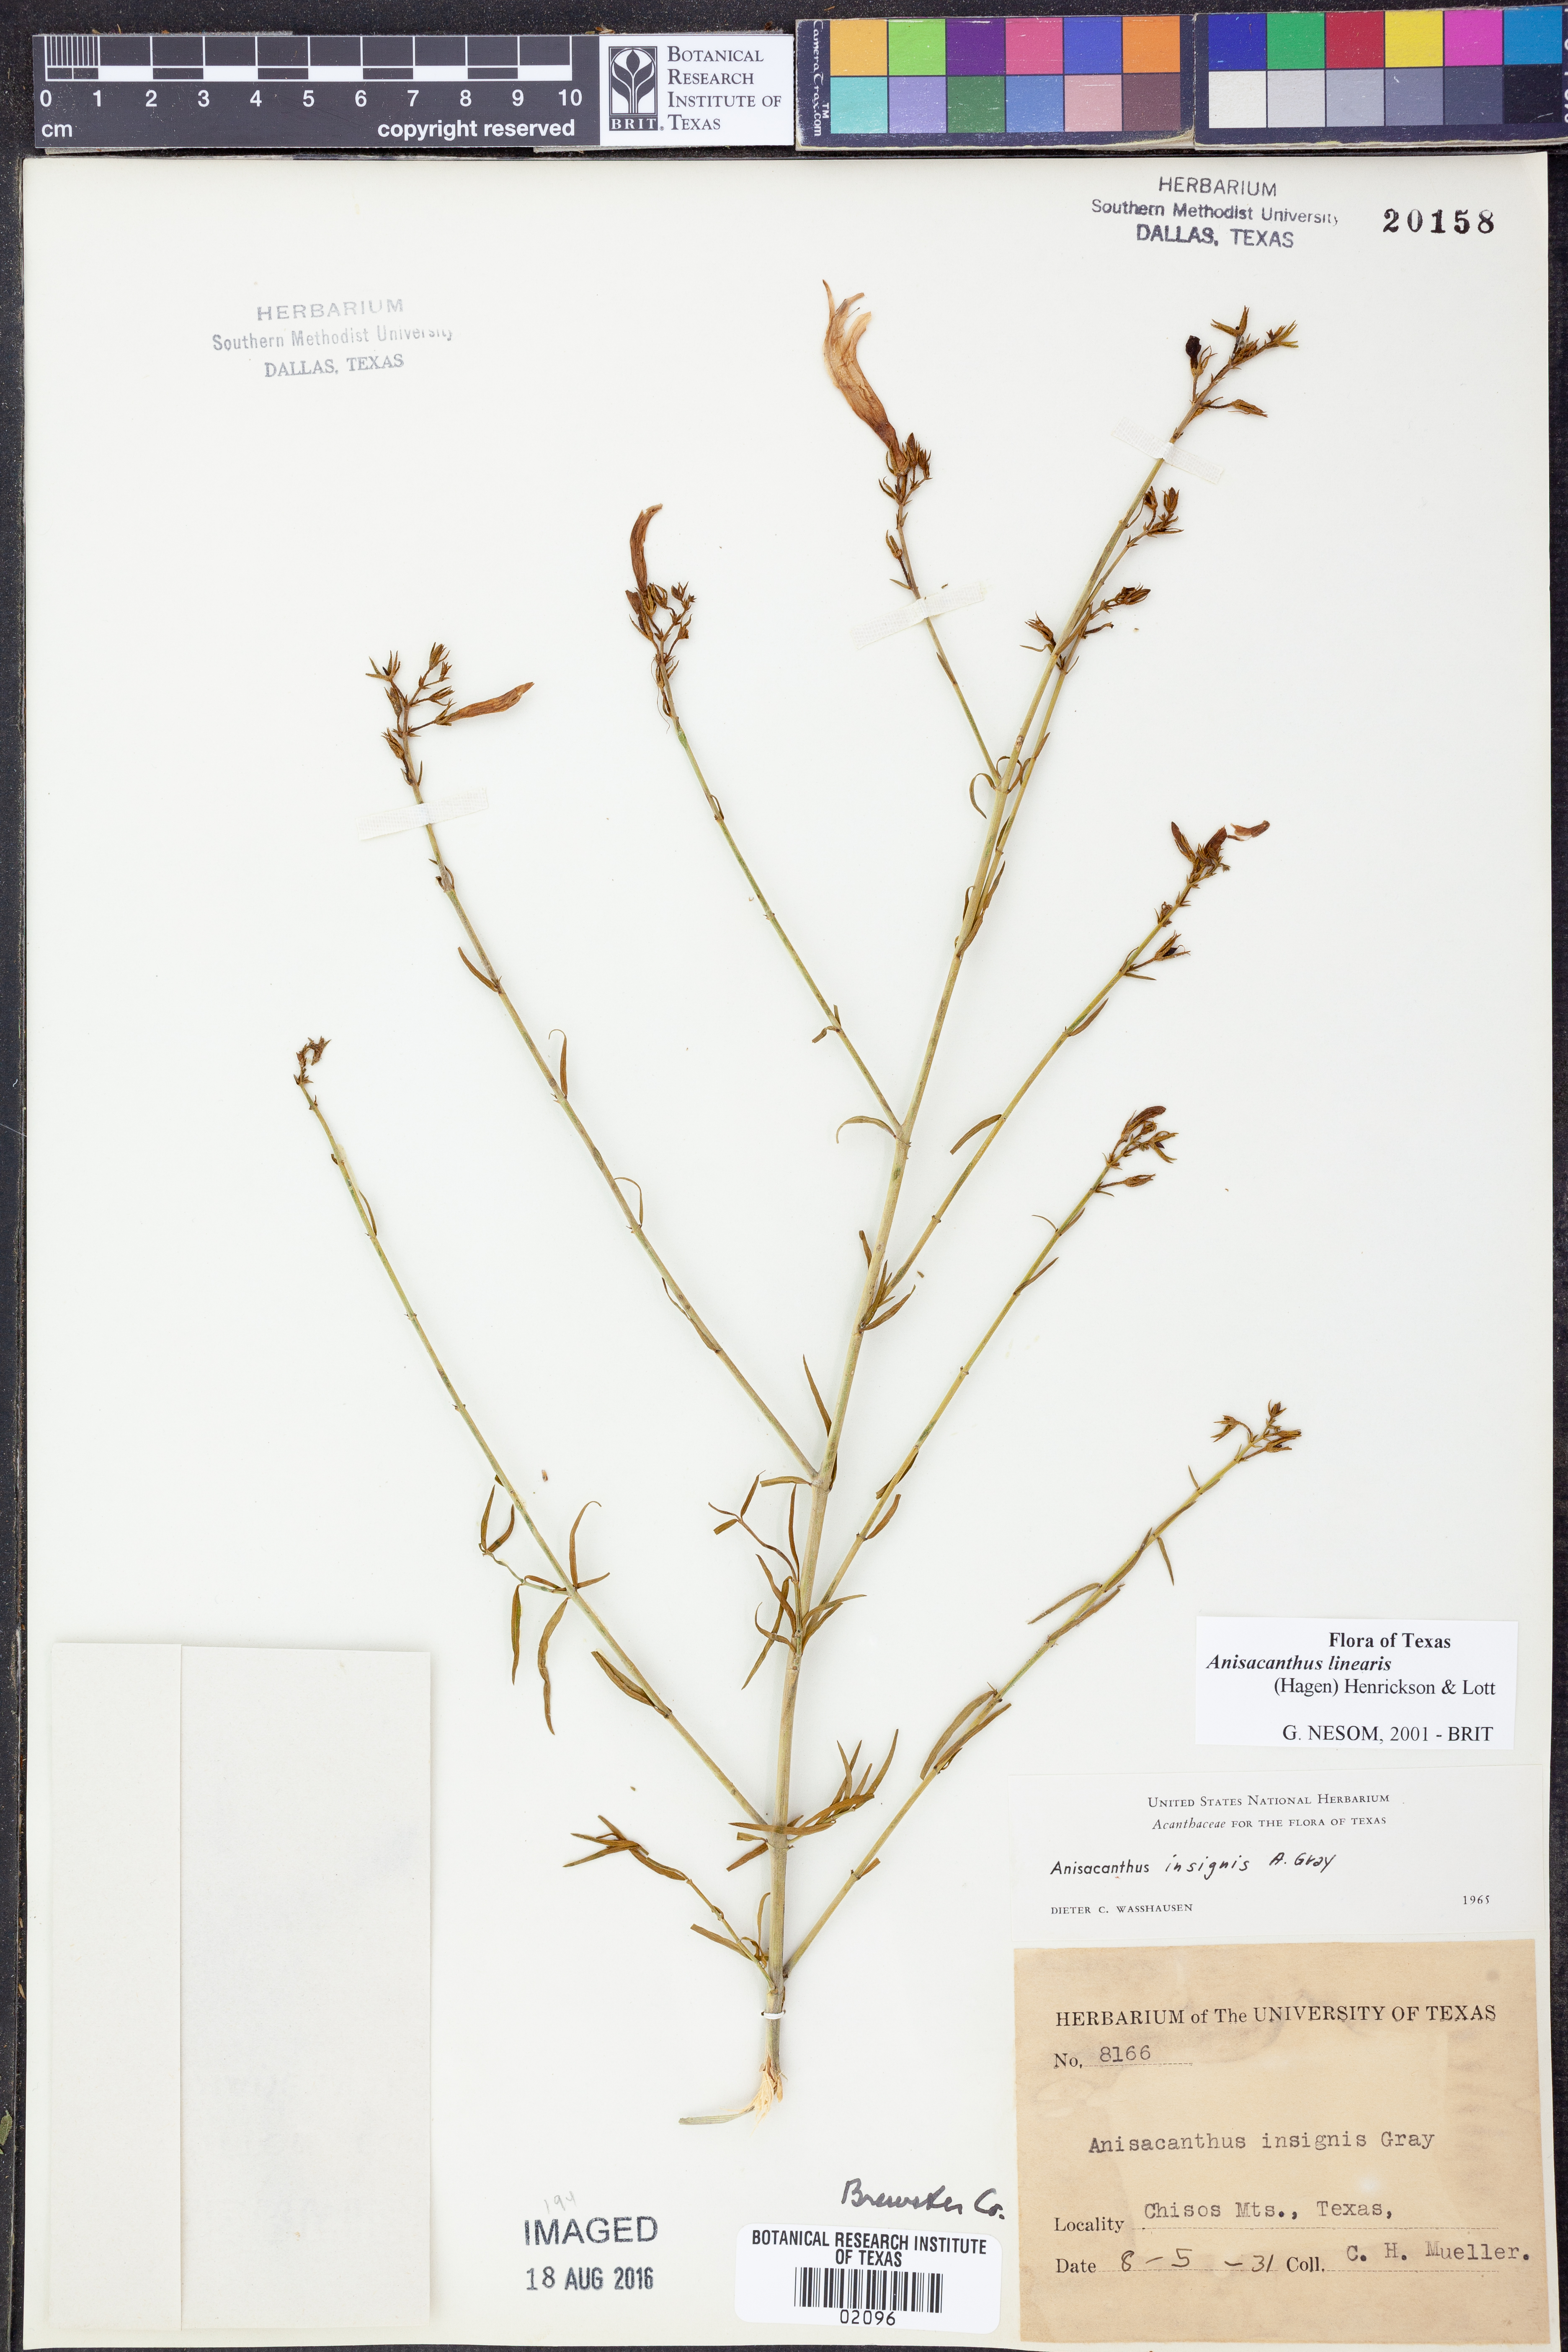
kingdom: Plantae
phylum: Tracheophyta
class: Magnoliopsida
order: Lamiales
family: Acanthaceae
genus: Anisacanthus
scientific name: Anisacanthus linearis
